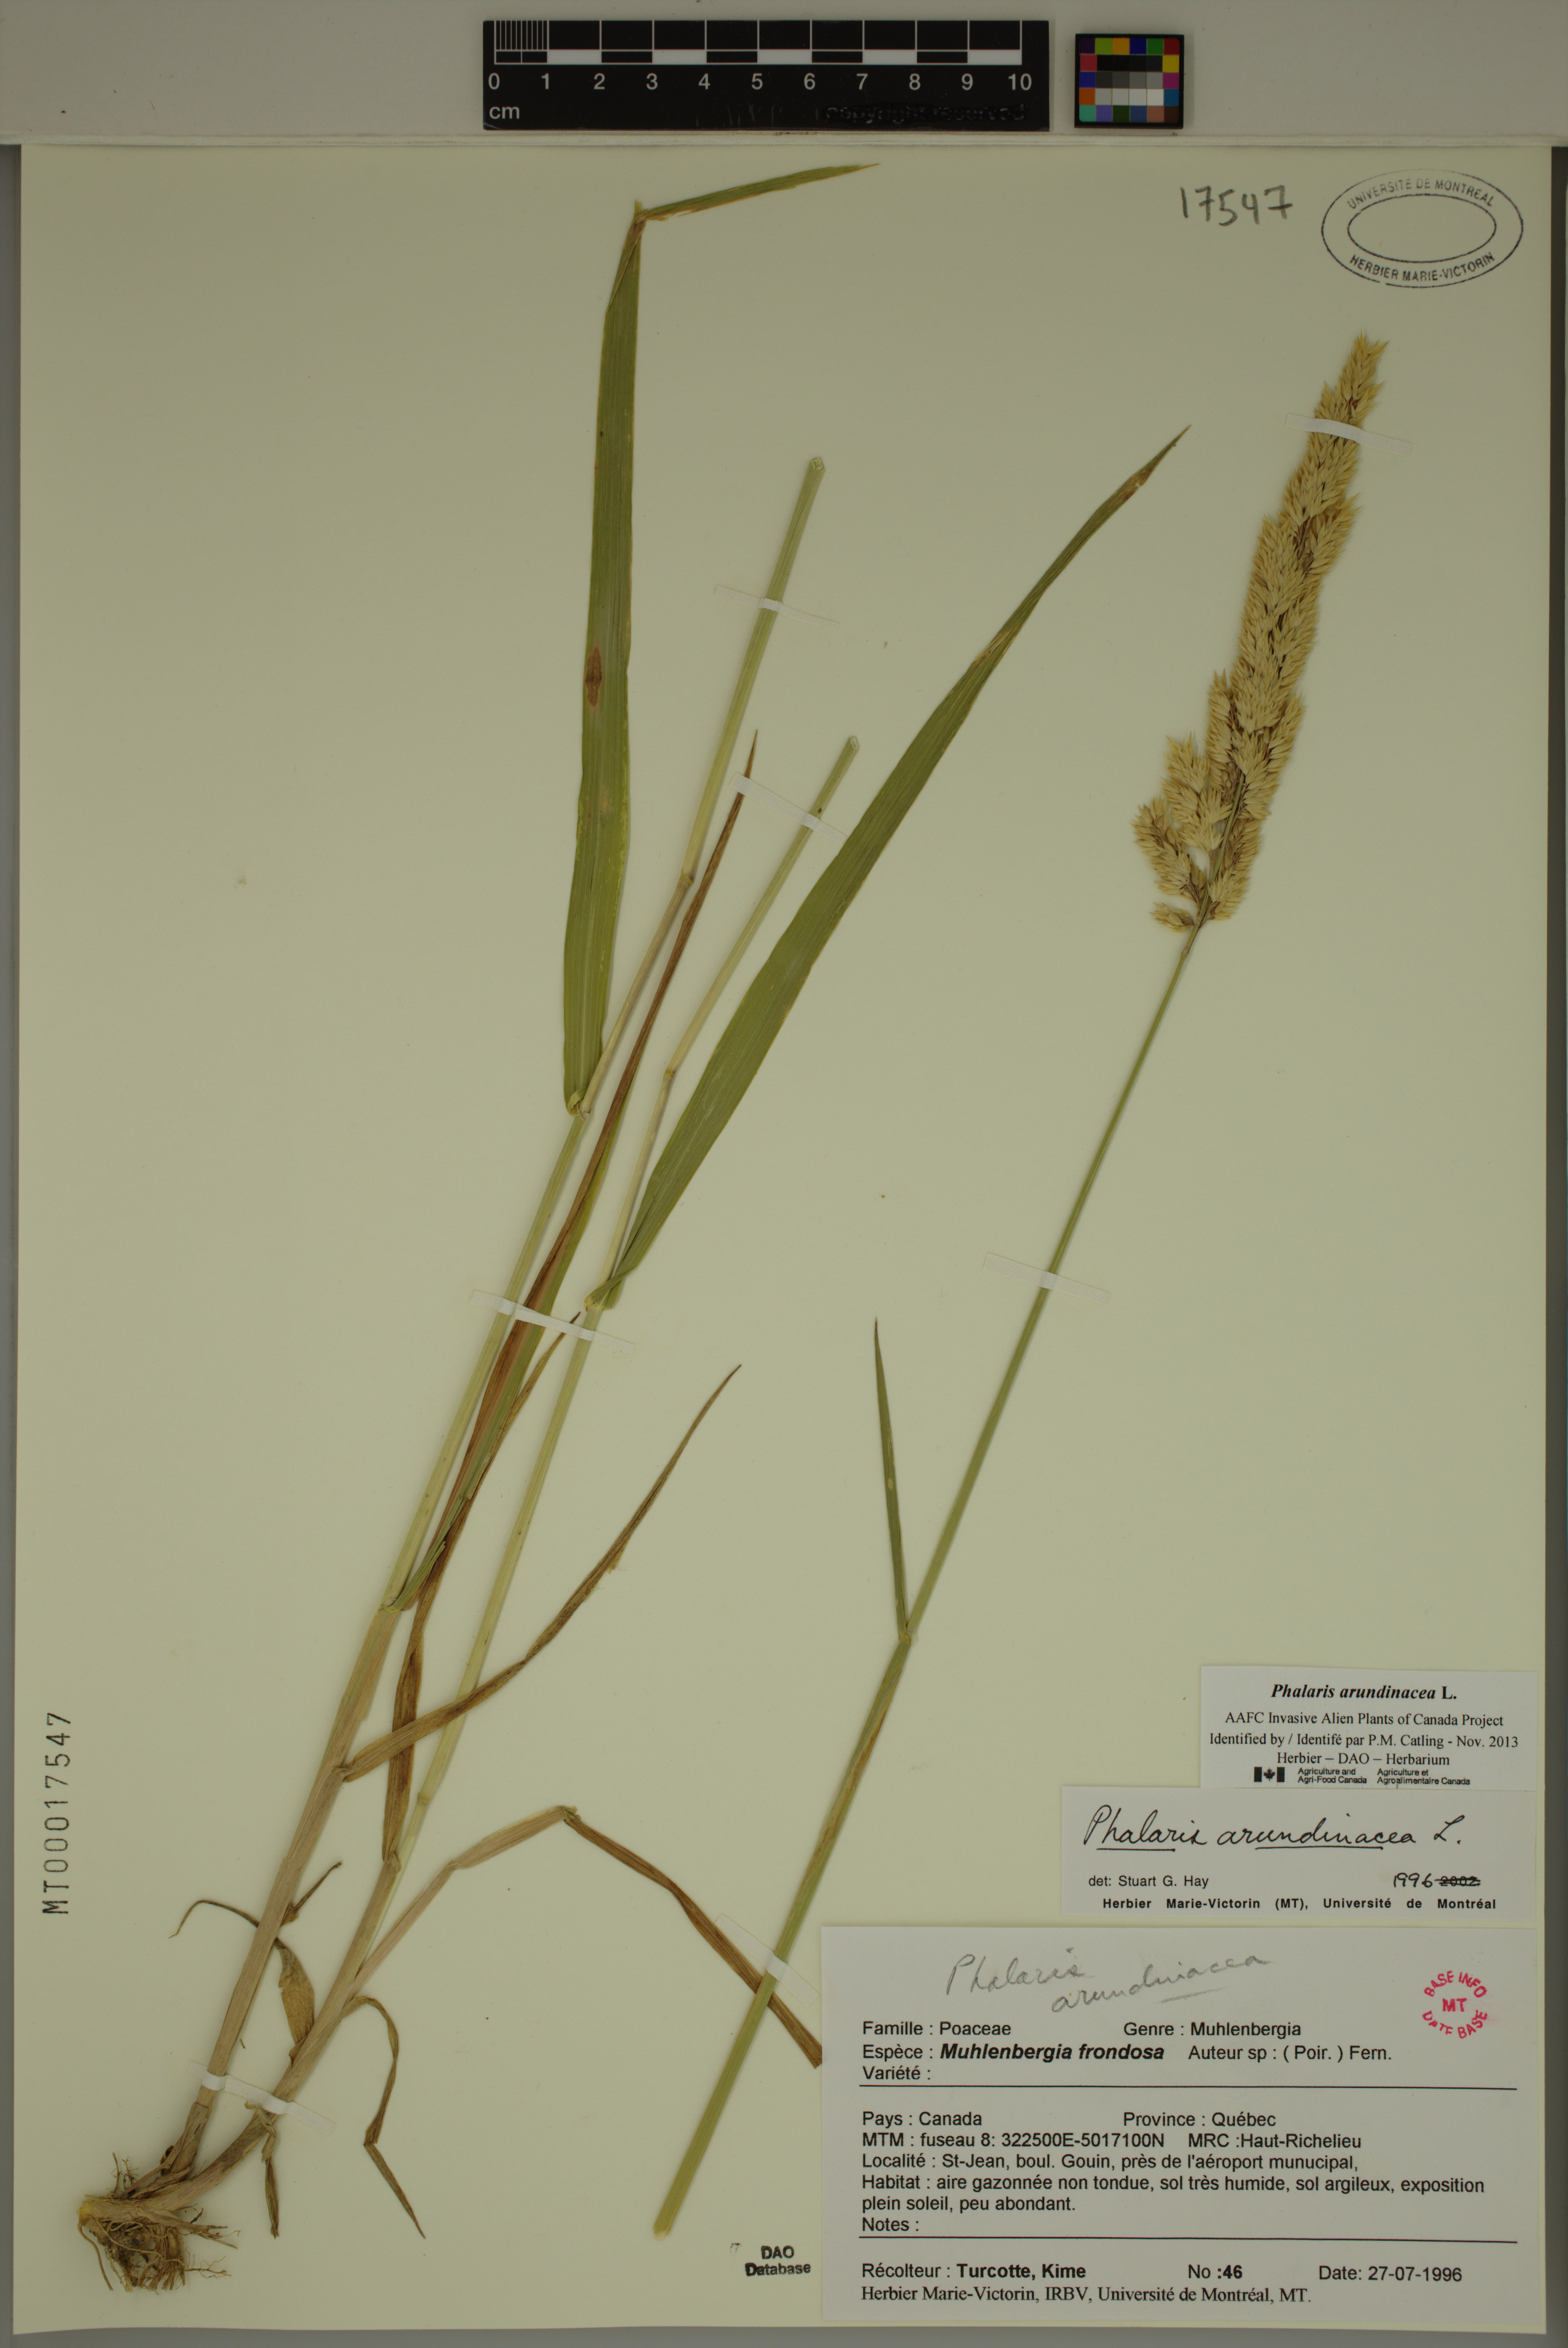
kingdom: Plantae
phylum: Tracheophyta
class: Liliopsida
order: Poales
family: Poaceae
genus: Phalaris
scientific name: Phalaris arundinacea
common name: Reed canary-grass
